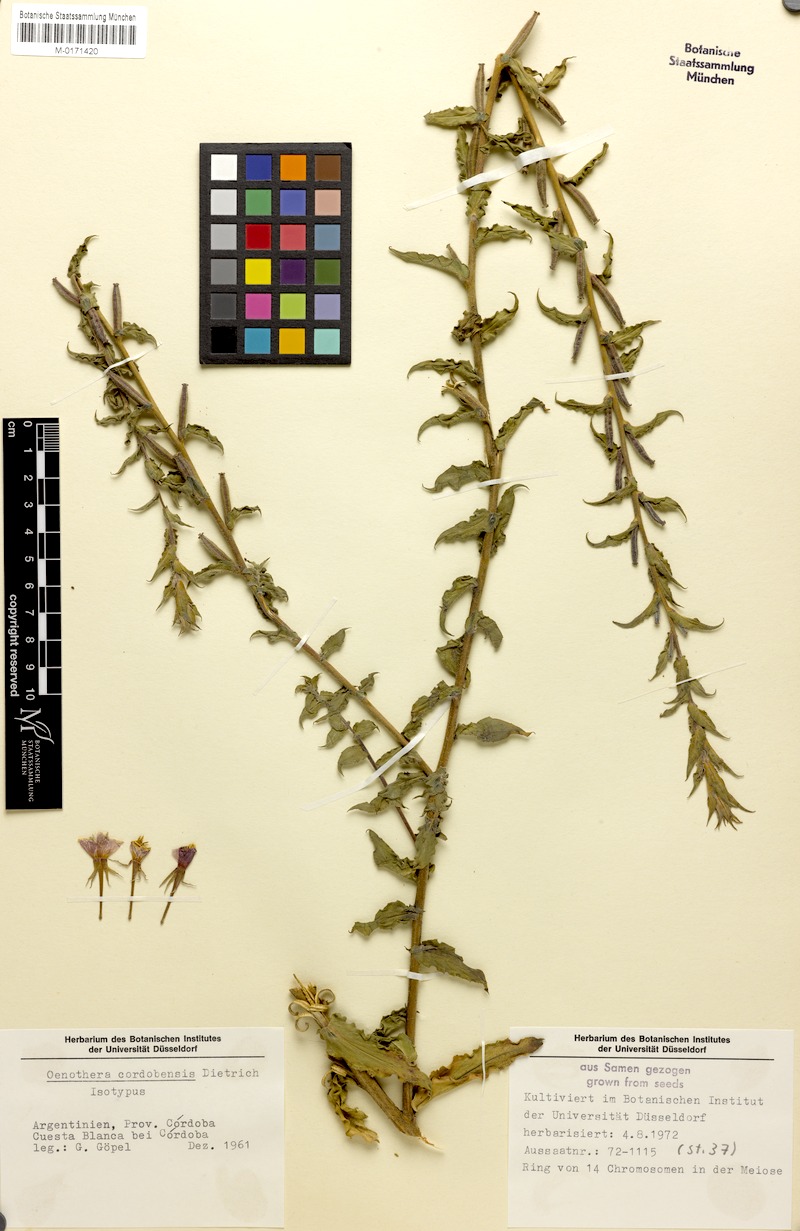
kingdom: Plantae
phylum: Tracheophyta
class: Magnoliopsida
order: Myrtales
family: Onagraceae
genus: Oenothera
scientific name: Oenothera siambonensis
